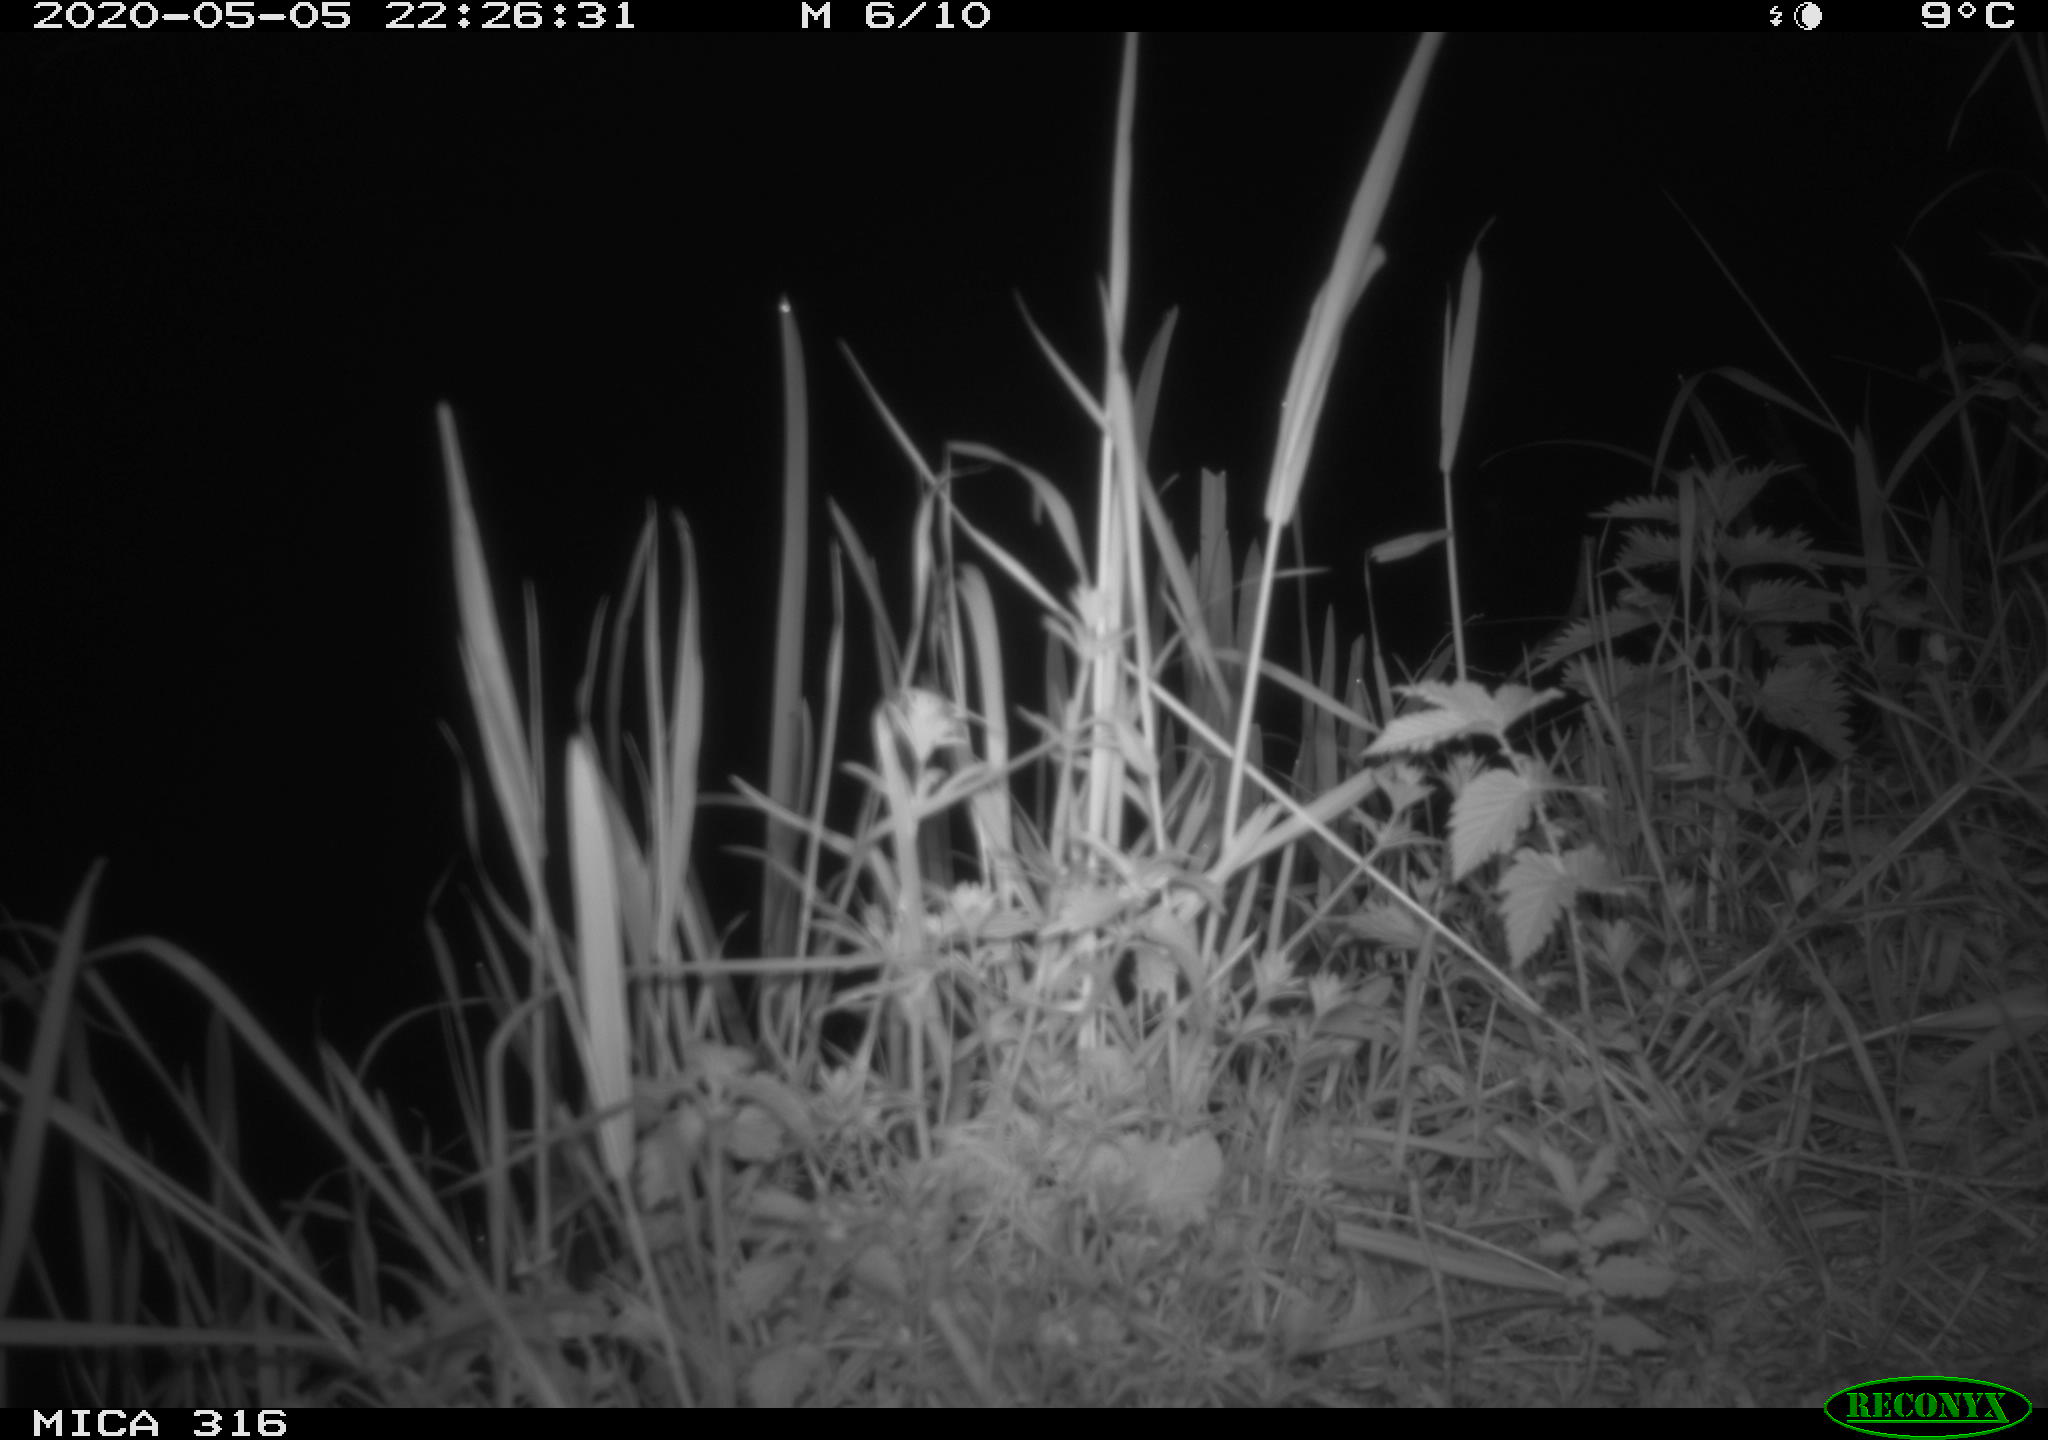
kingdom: Animalia
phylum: Chordata
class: Aves
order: Anseriformes
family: Anatidae
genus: Anas
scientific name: Anas platyrhynchos
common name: Mallard
